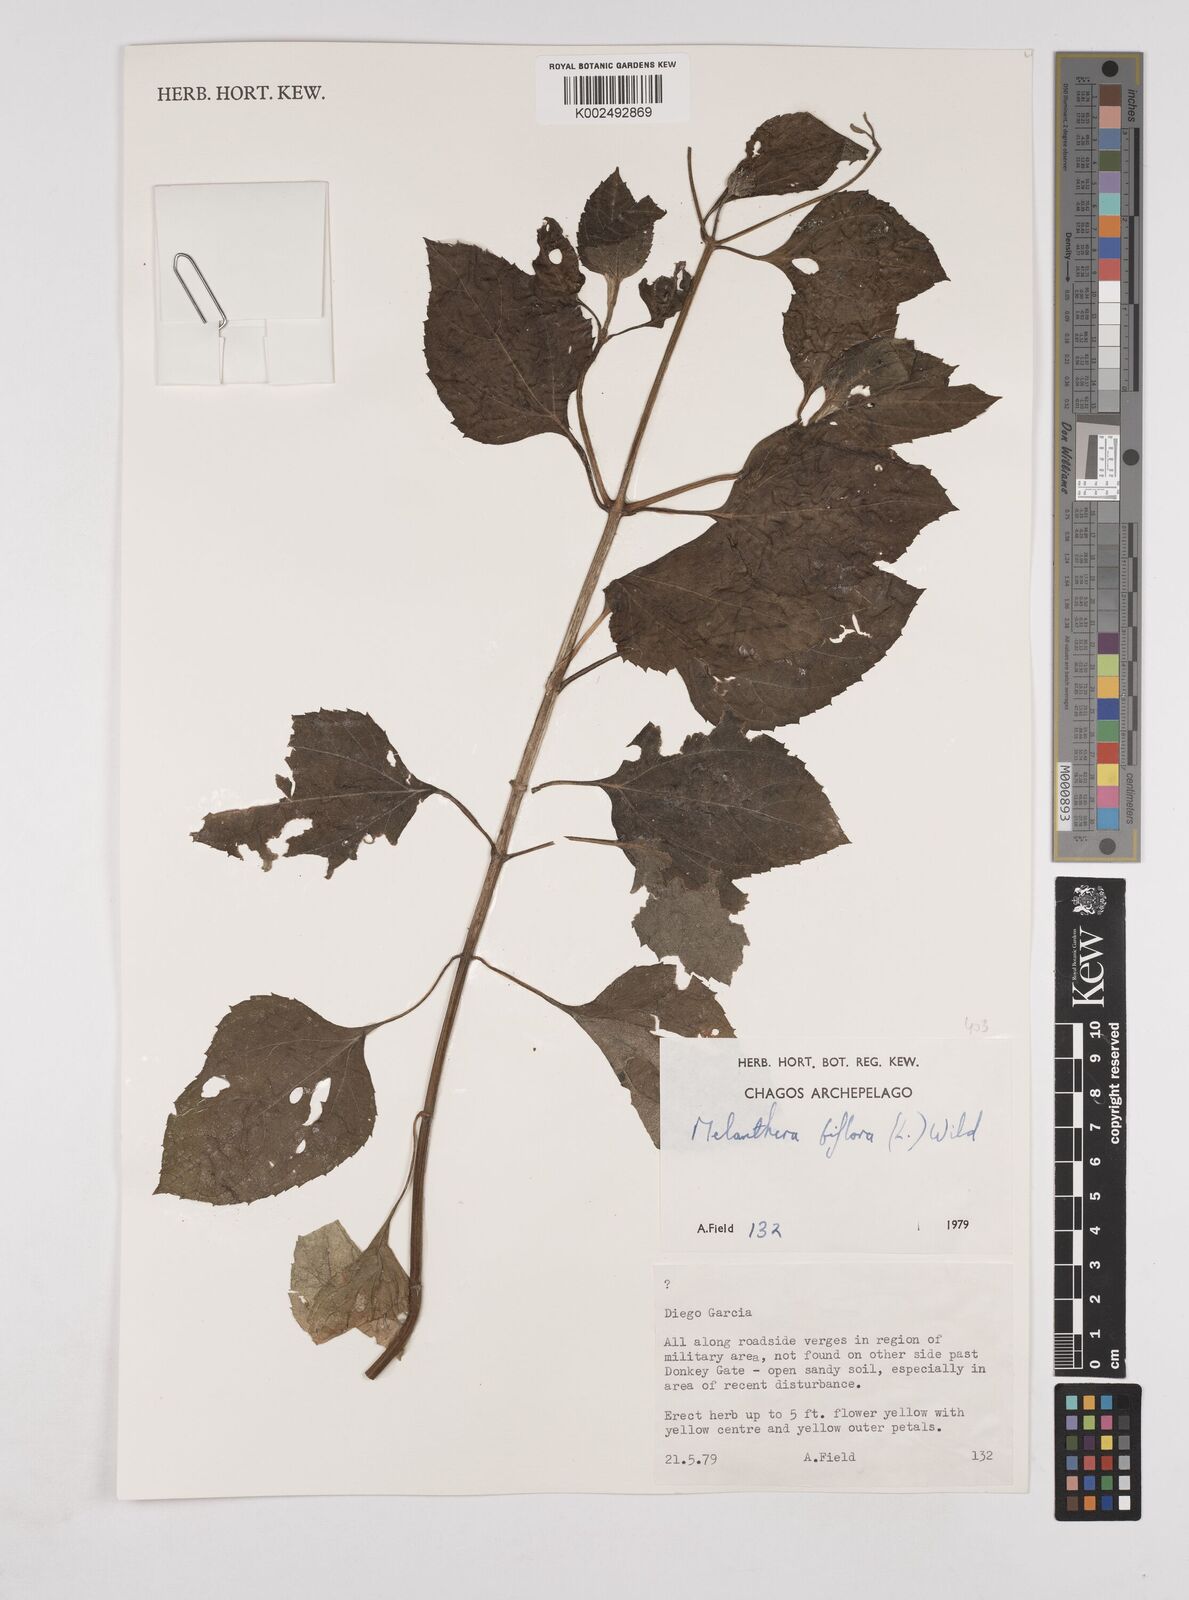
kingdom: Plantae
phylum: Tracheophyta
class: Magnoliopsida
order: Asterales
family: Asteraceae
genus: Wollastonia
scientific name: Wollastonia biflora
